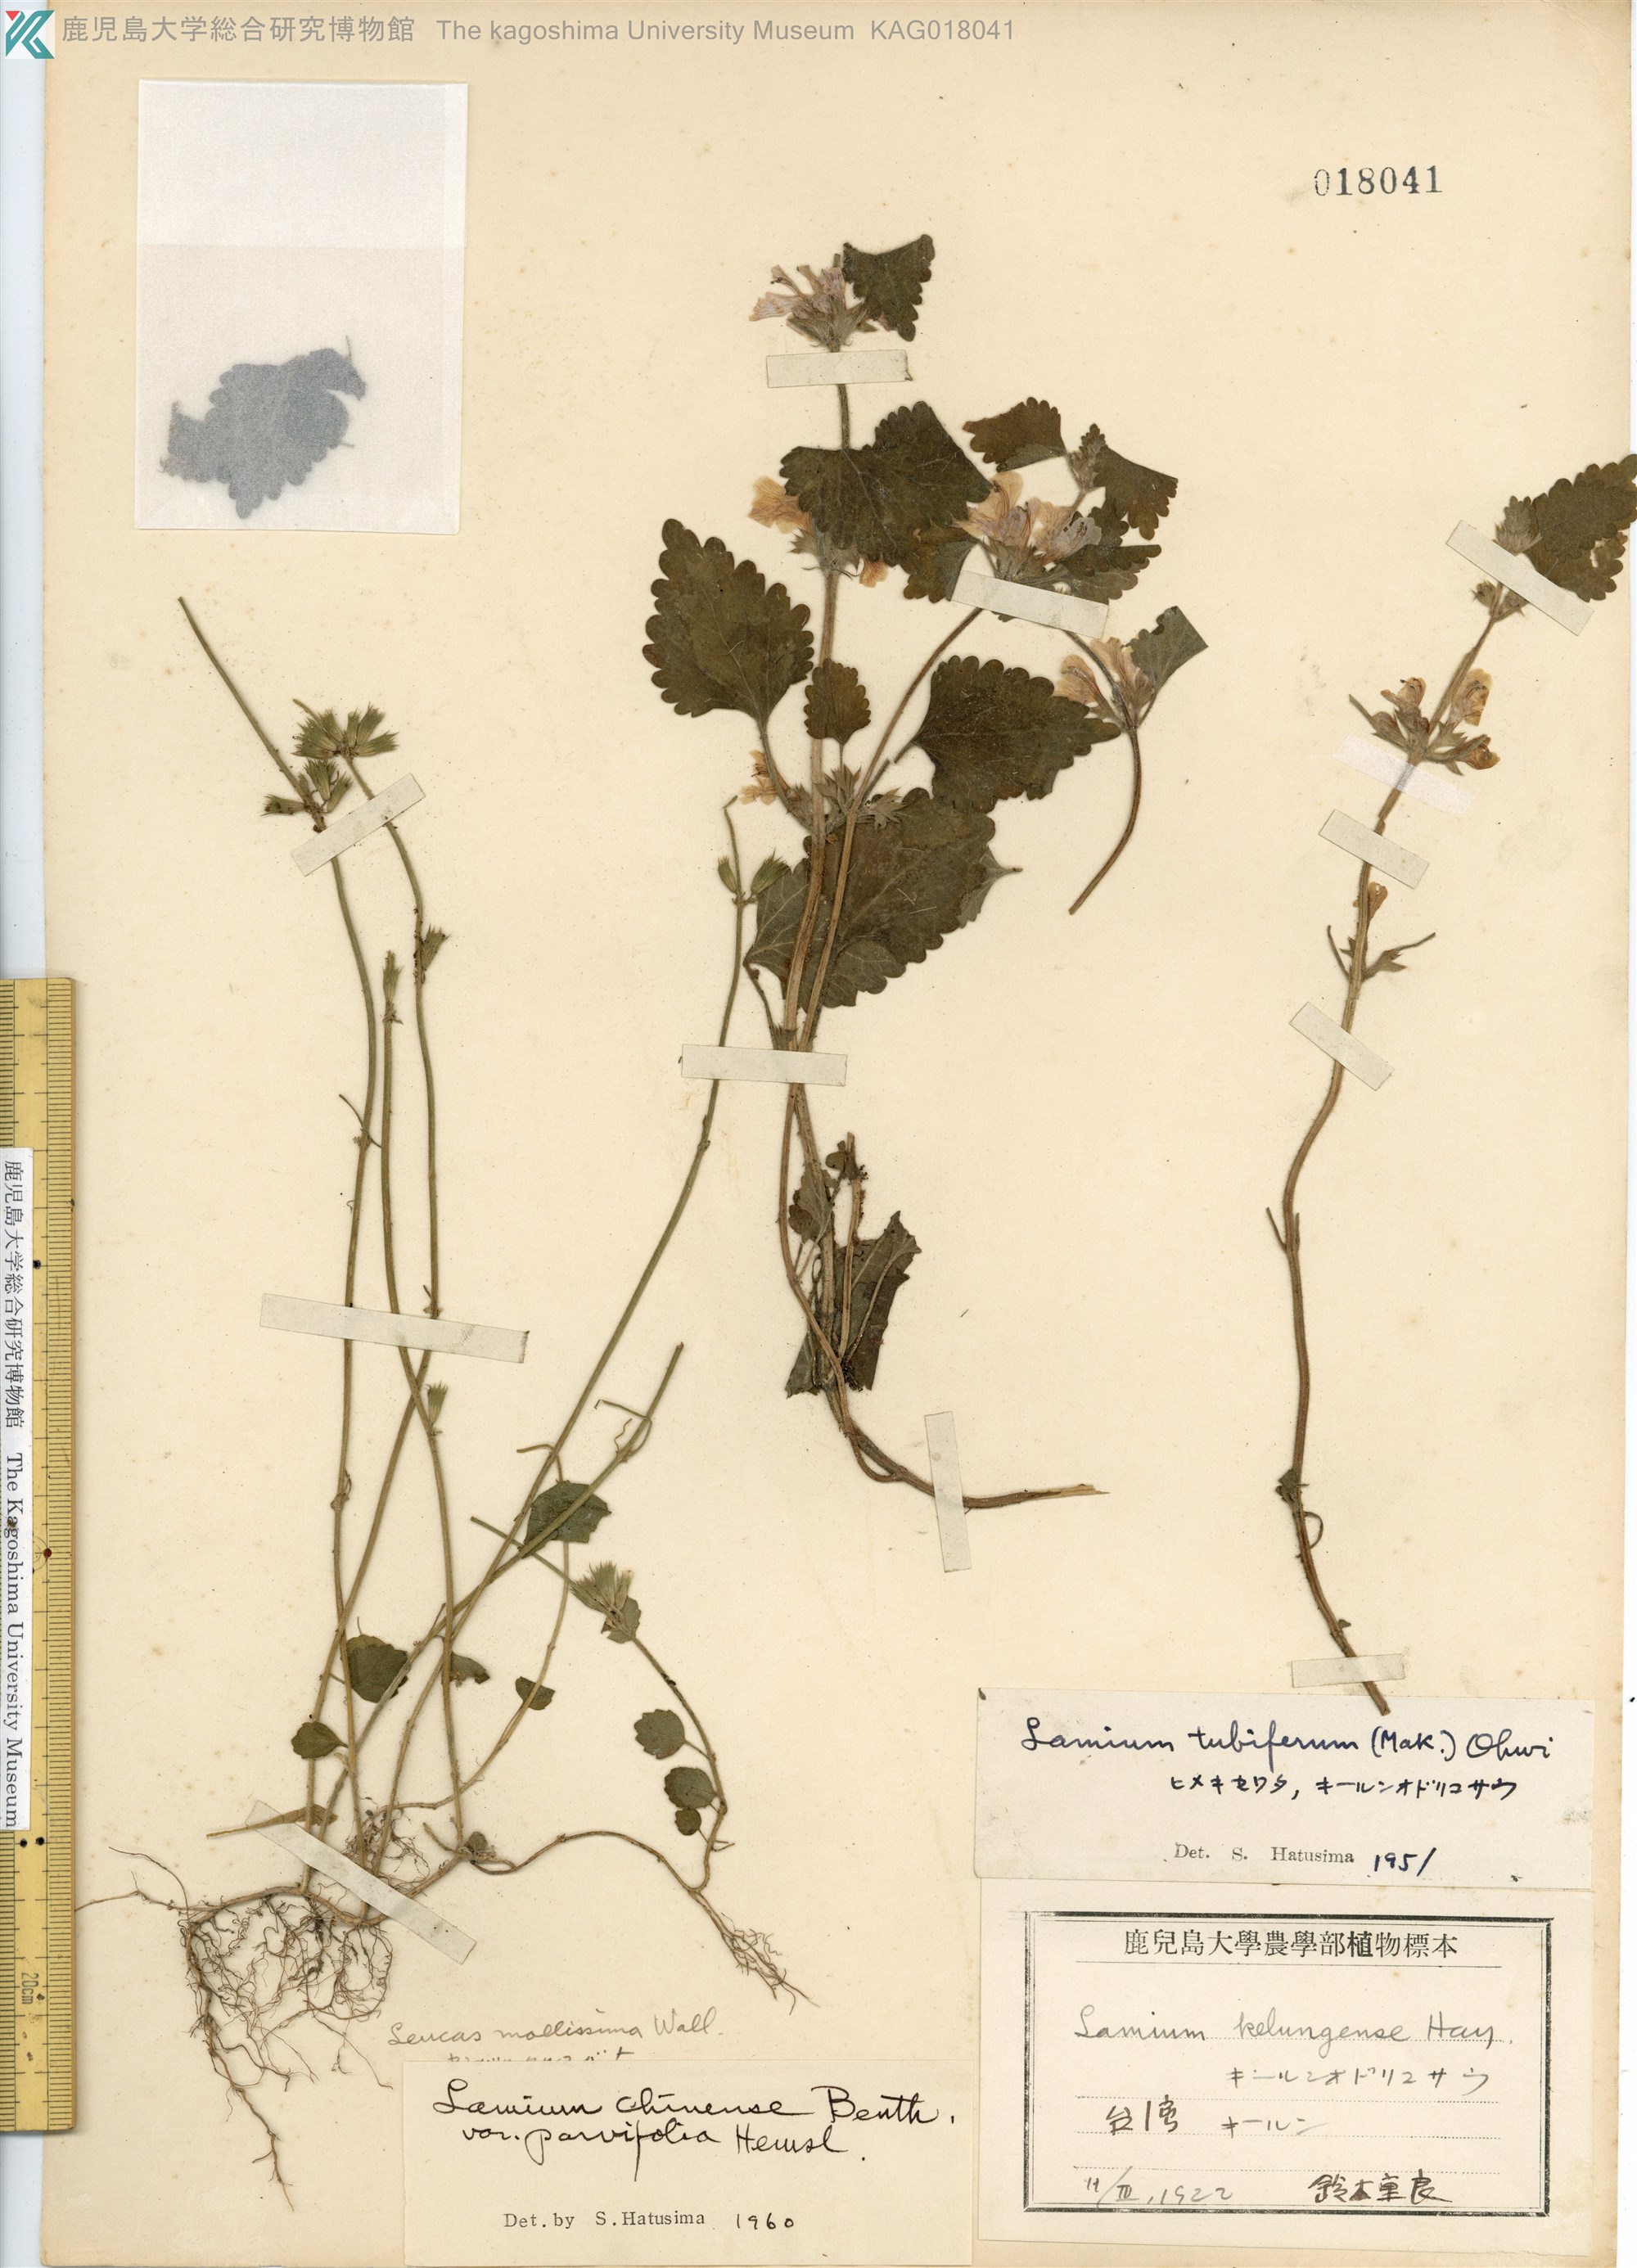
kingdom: Plantae
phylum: Tracheophyta
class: Magnoliopsida
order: Lamiales
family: Lamiaceae
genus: Matsumurella
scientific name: Matsumurella tuberifera
